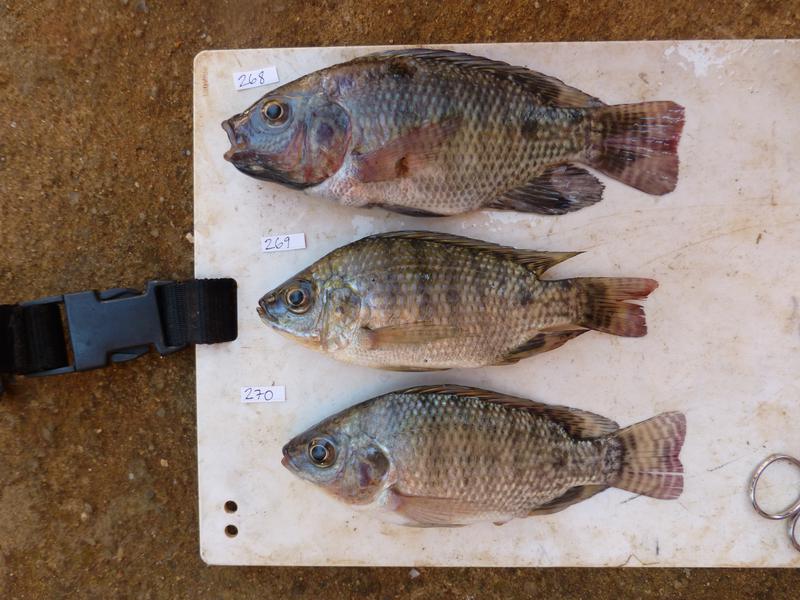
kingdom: Animalia
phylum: Chordata
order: Perciformes
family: Cichlidae
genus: Oreochromis
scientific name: Oreochromis niloticus
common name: Nile tilapia
